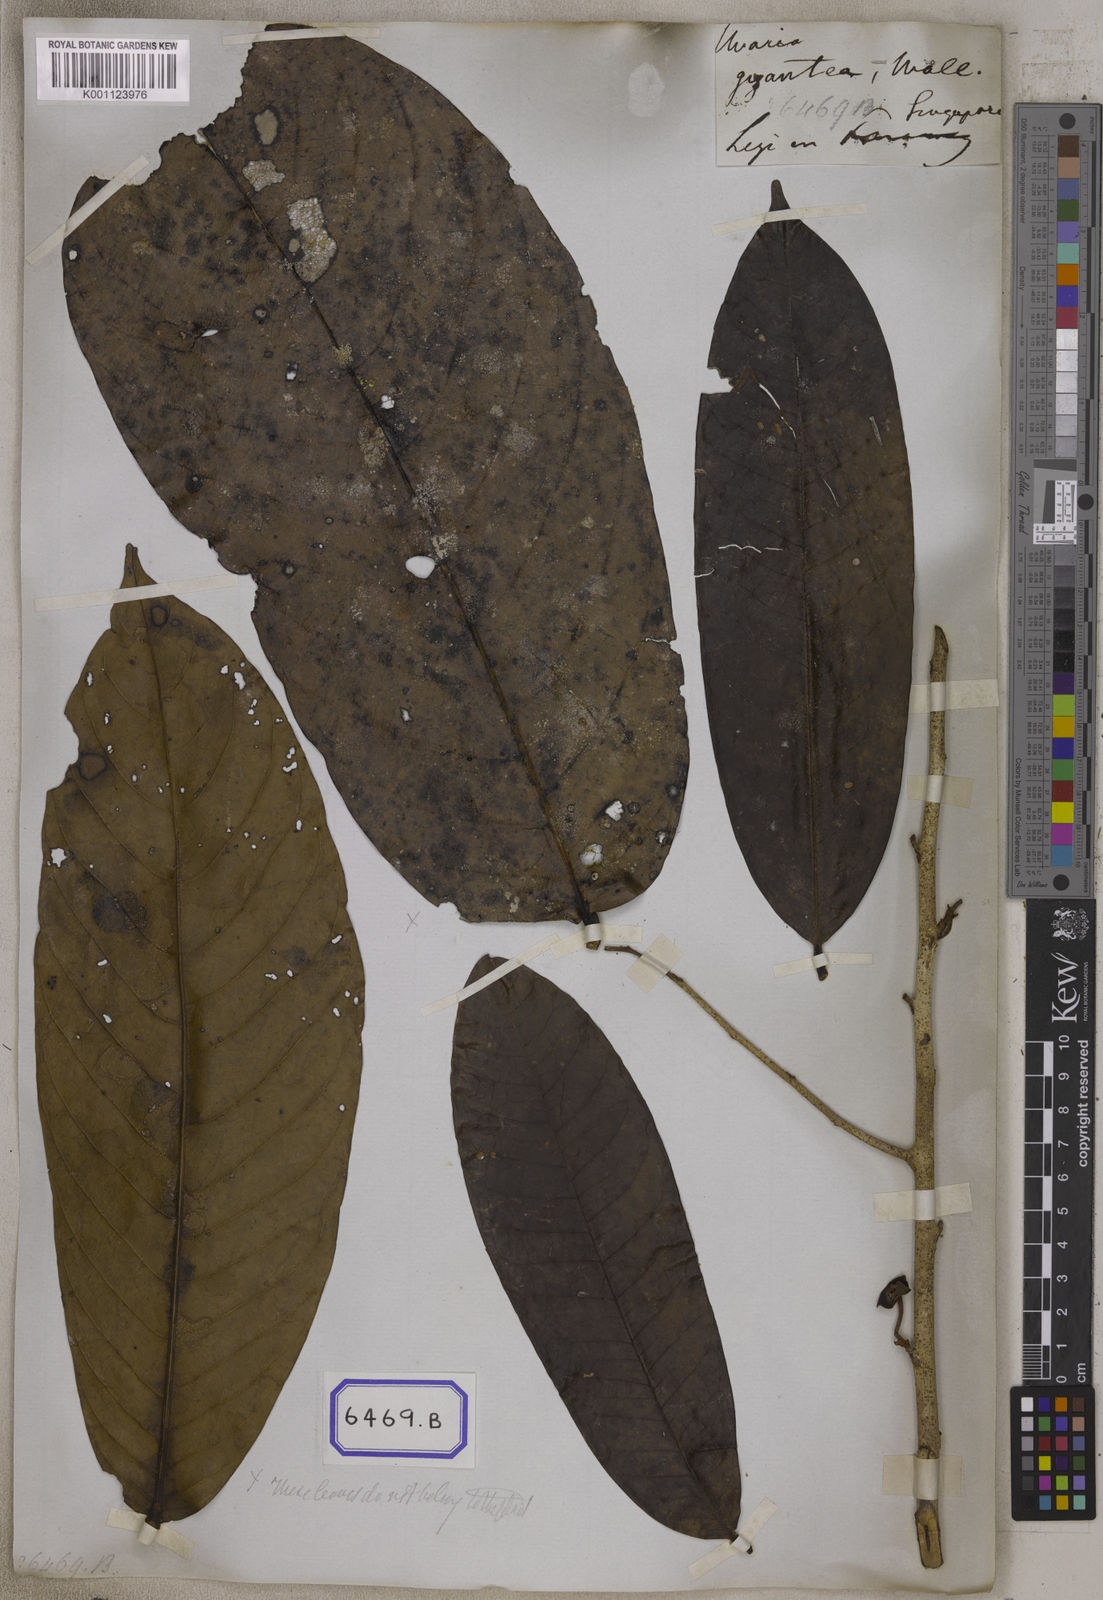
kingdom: Plantae
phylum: Tracheophyta
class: Magnoliopsida
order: Magnoliales
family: Annonaceae
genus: Goniothalamus
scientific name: Goniothalamus giganteus
